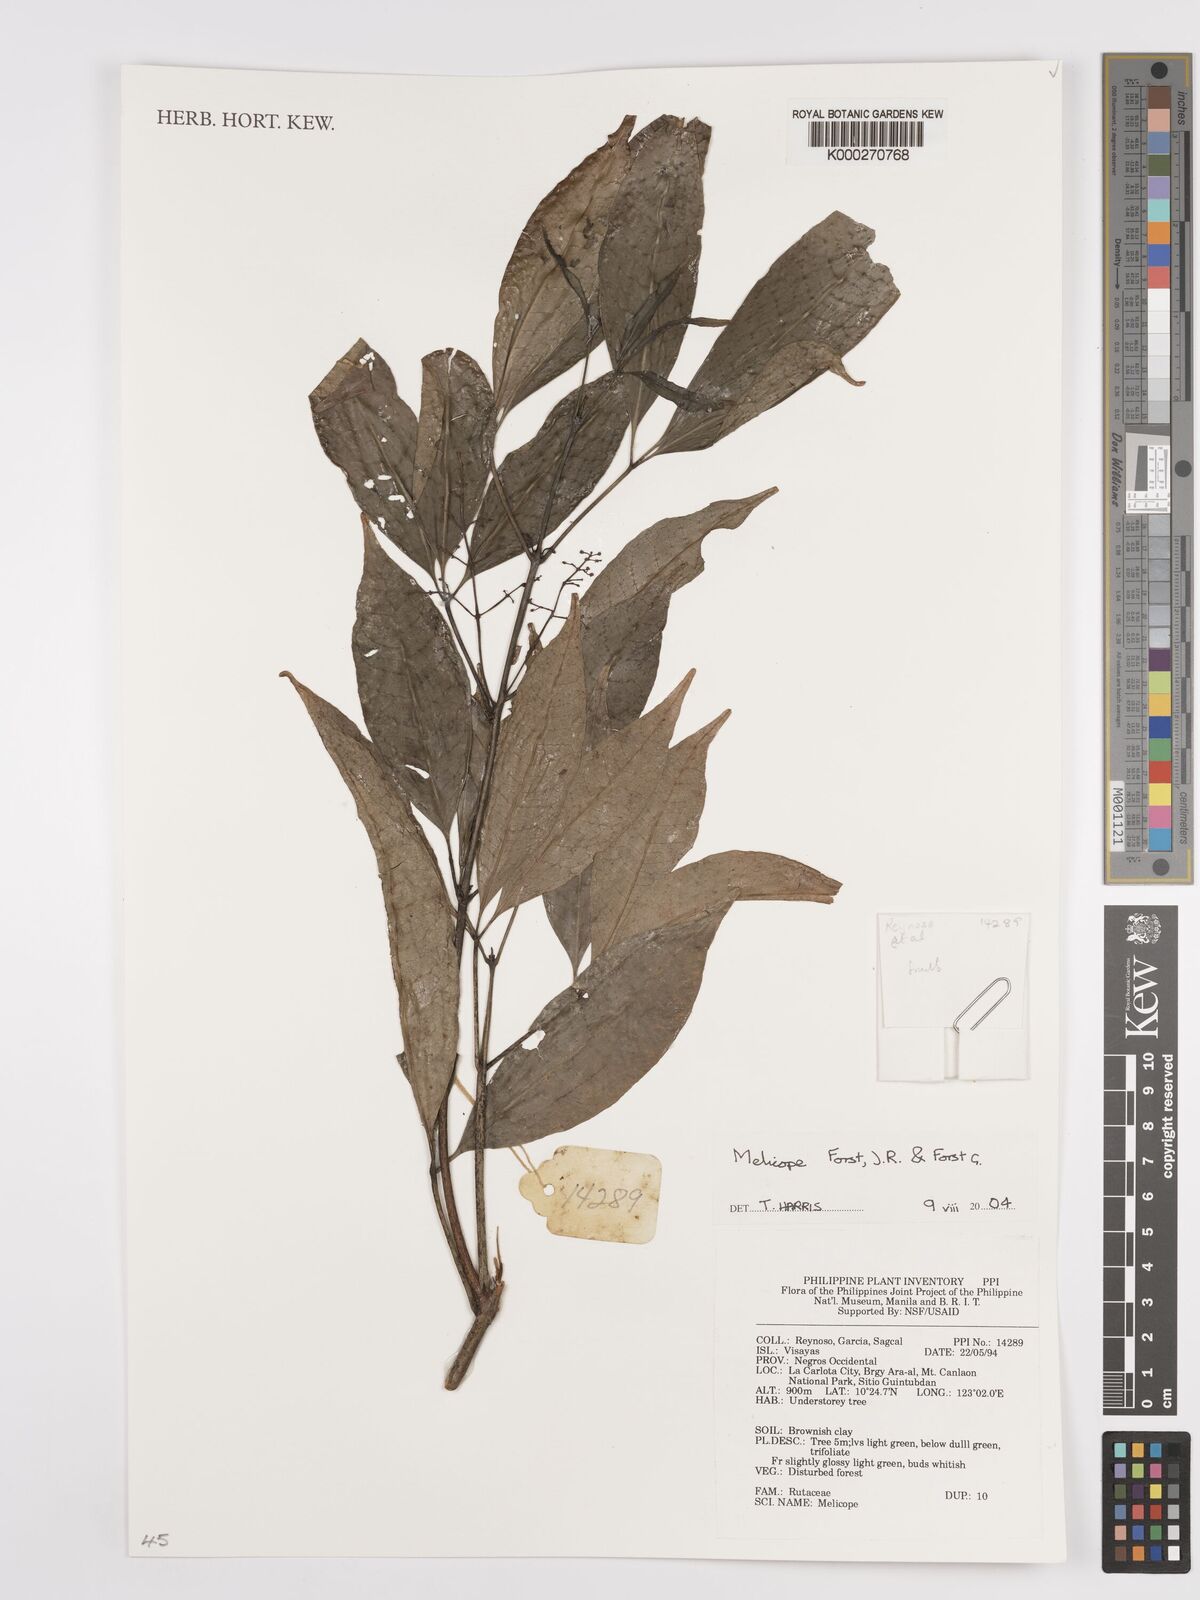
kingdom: Plantae
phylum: Tracheophyta
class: Magnoliopsida
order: Sapindales
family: Rutaceae
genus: Melicope
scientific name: Melicope
